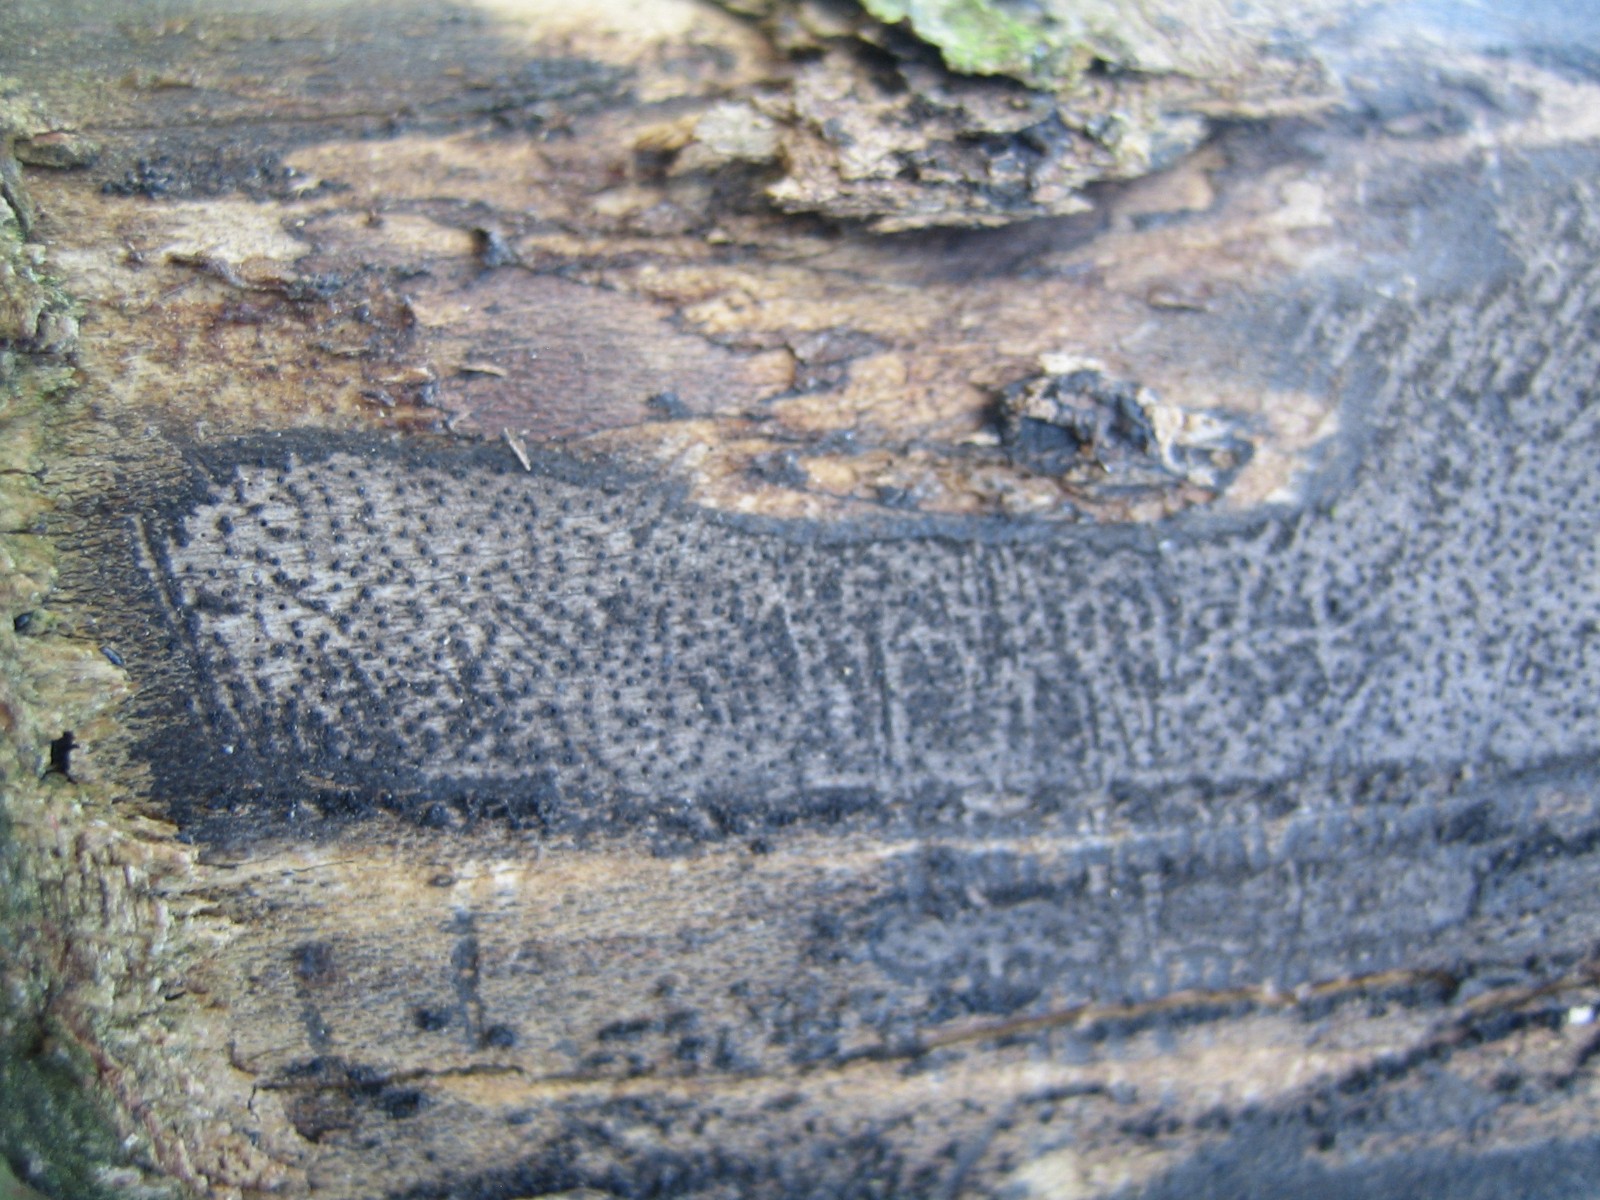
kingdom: Fungi
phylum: Ascomycota
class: Sordariomycetes
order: Xylariales
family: Diatrypaceae
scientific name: Diatrypaceae
